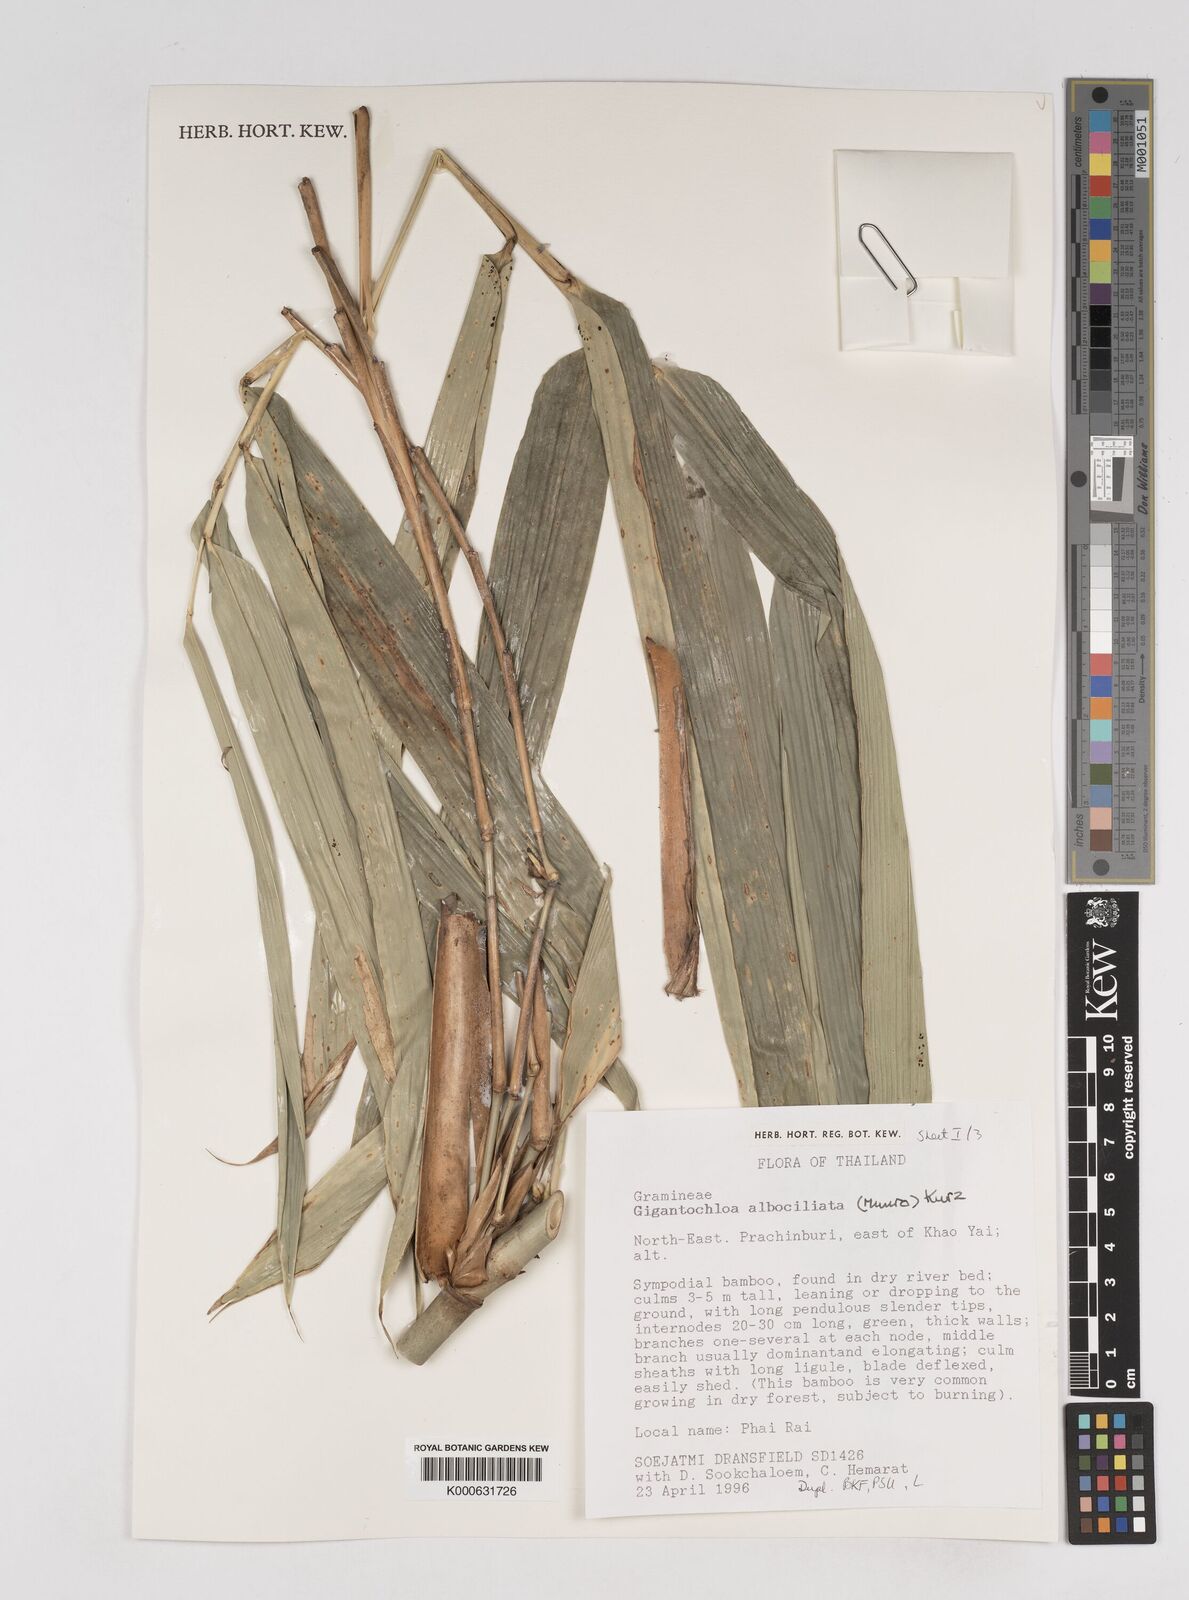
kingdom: Plantae
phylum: Tracheophyta
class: Liliopsida
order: Poales
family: Poaceae
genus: Gigantochloa
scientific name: Gigantochloa albociliata
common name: White-fringe gigantochloa
